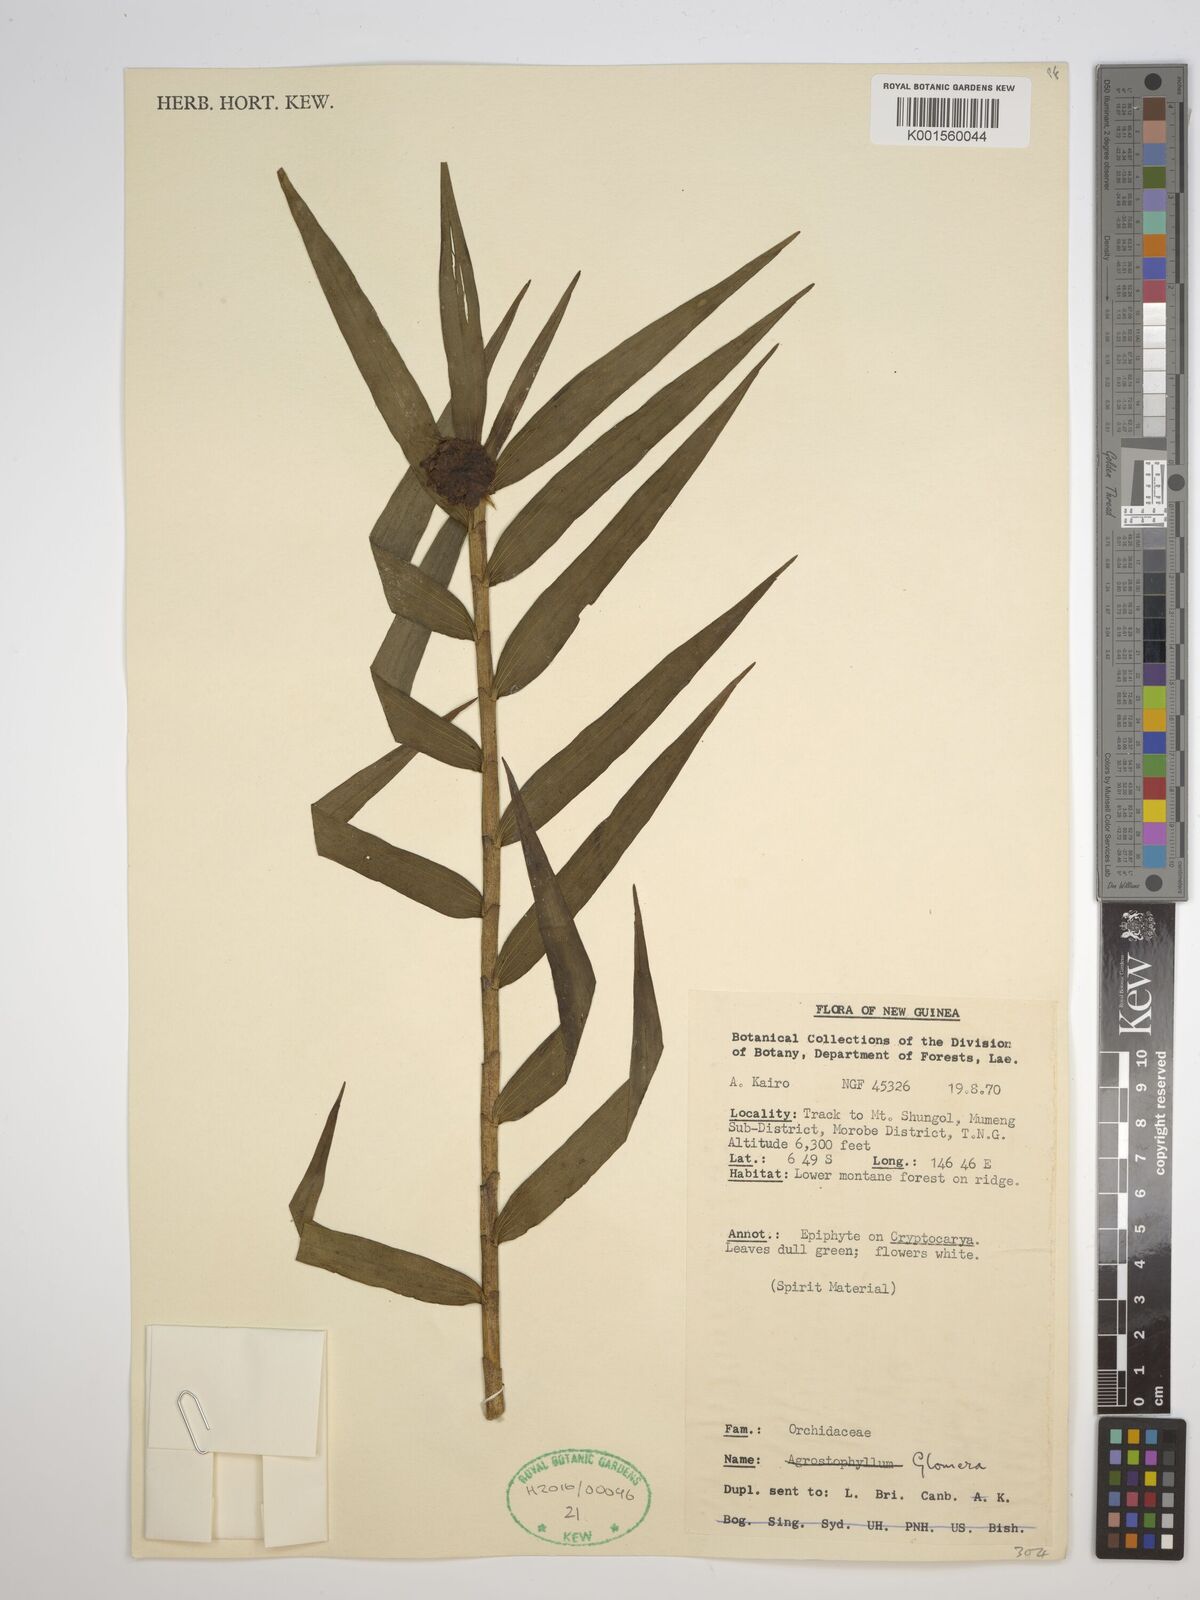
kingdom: Plantae
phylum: Tracheophyta
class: Liliopsida
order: Asparagales
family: Orchidaceae
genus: Glomera
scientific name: Glomera
